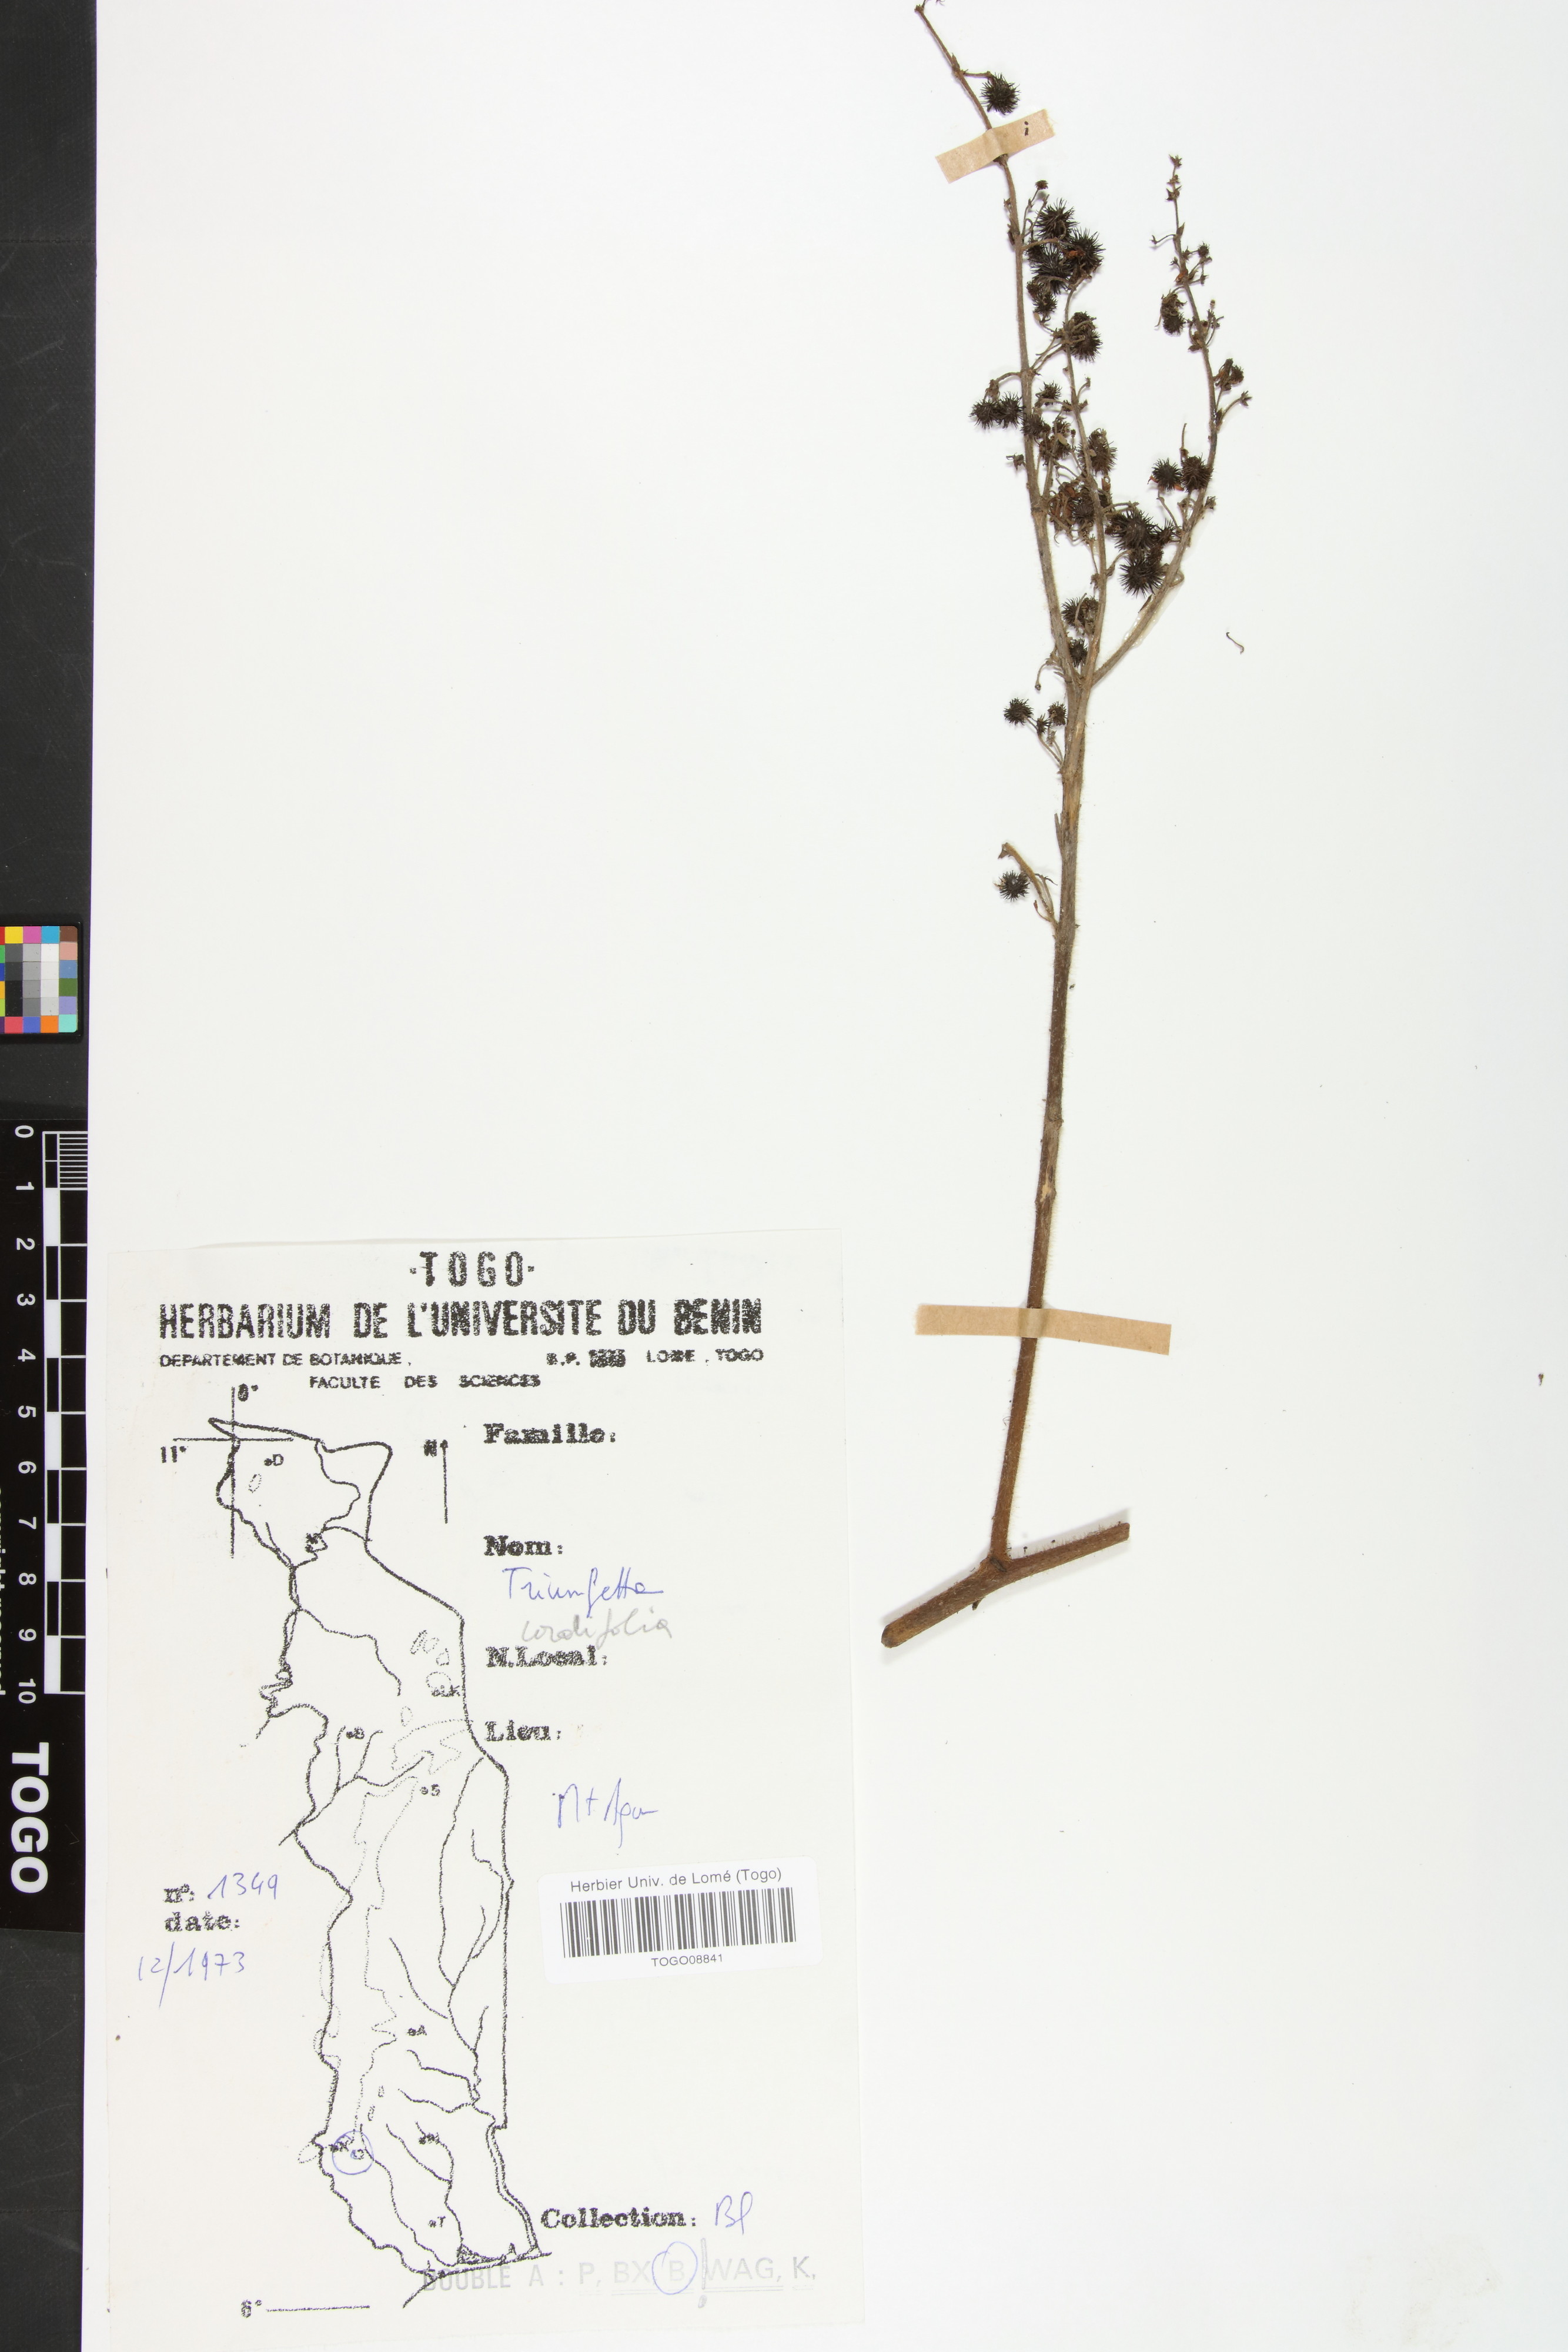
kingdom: Plantae
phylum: Tracheophyta
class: Magnoliopsida
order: Malvales
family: Malvaceae
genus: Triumfetta
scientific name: Triumfetta cordifolia
